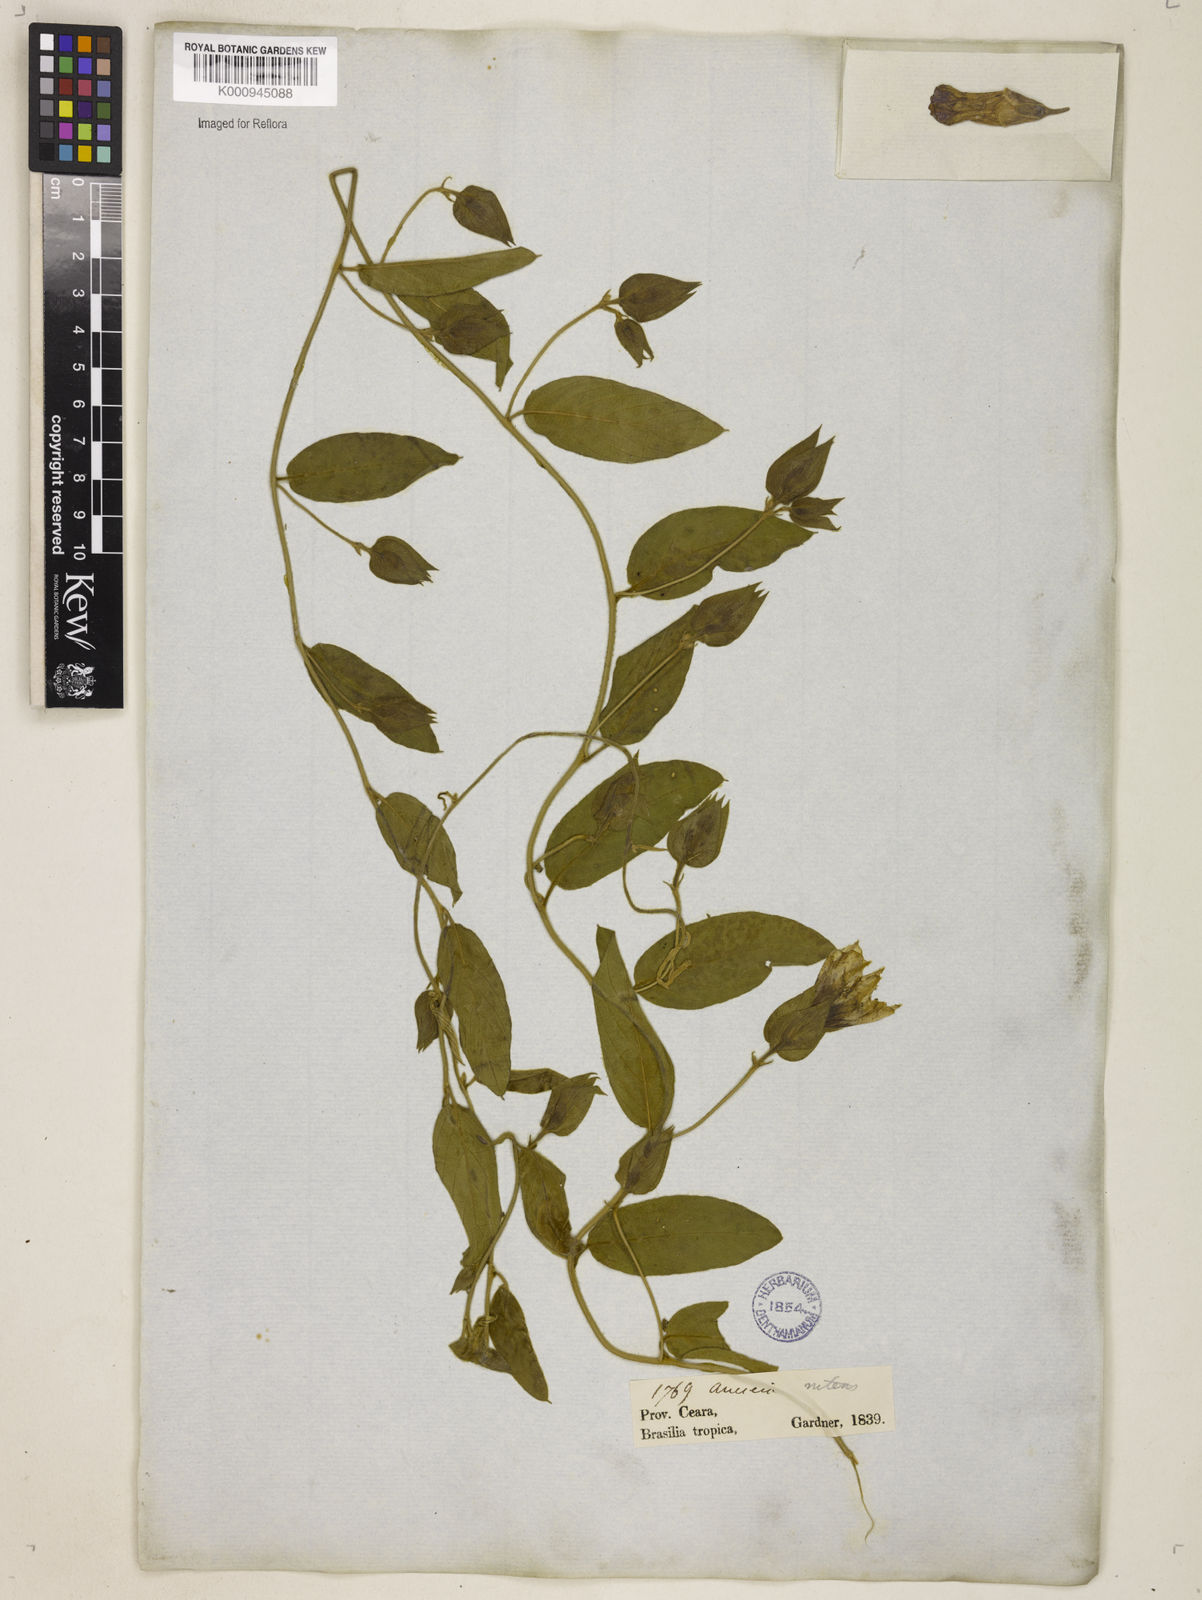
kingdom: Plantae
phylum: Tracheophyta
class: Magnoliopsida
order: Solanales
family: Convolvulaceae
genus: Aniseia
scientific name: Aniseia martinicensis
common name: Kulayadambu
